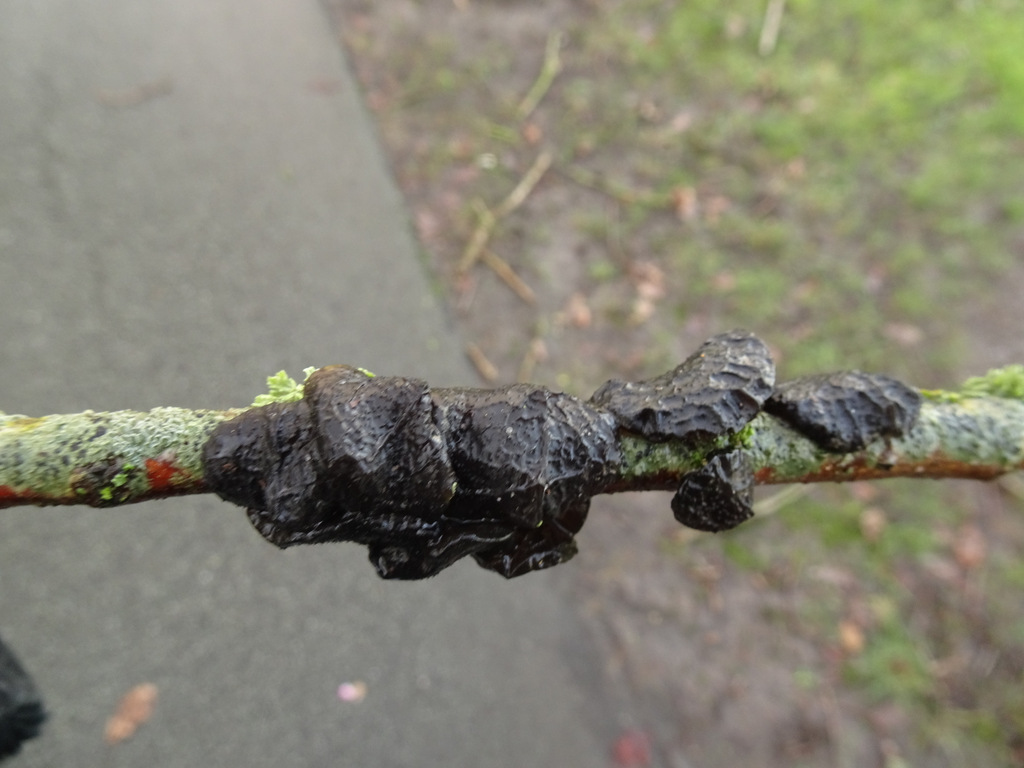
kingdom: Fungi
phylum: Basidiomycota
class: Agaricomycetes
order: Auriculariales
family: Auriculariaceae
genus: Exidia
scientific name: Exidia glandulosa
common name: ege-bævretop
